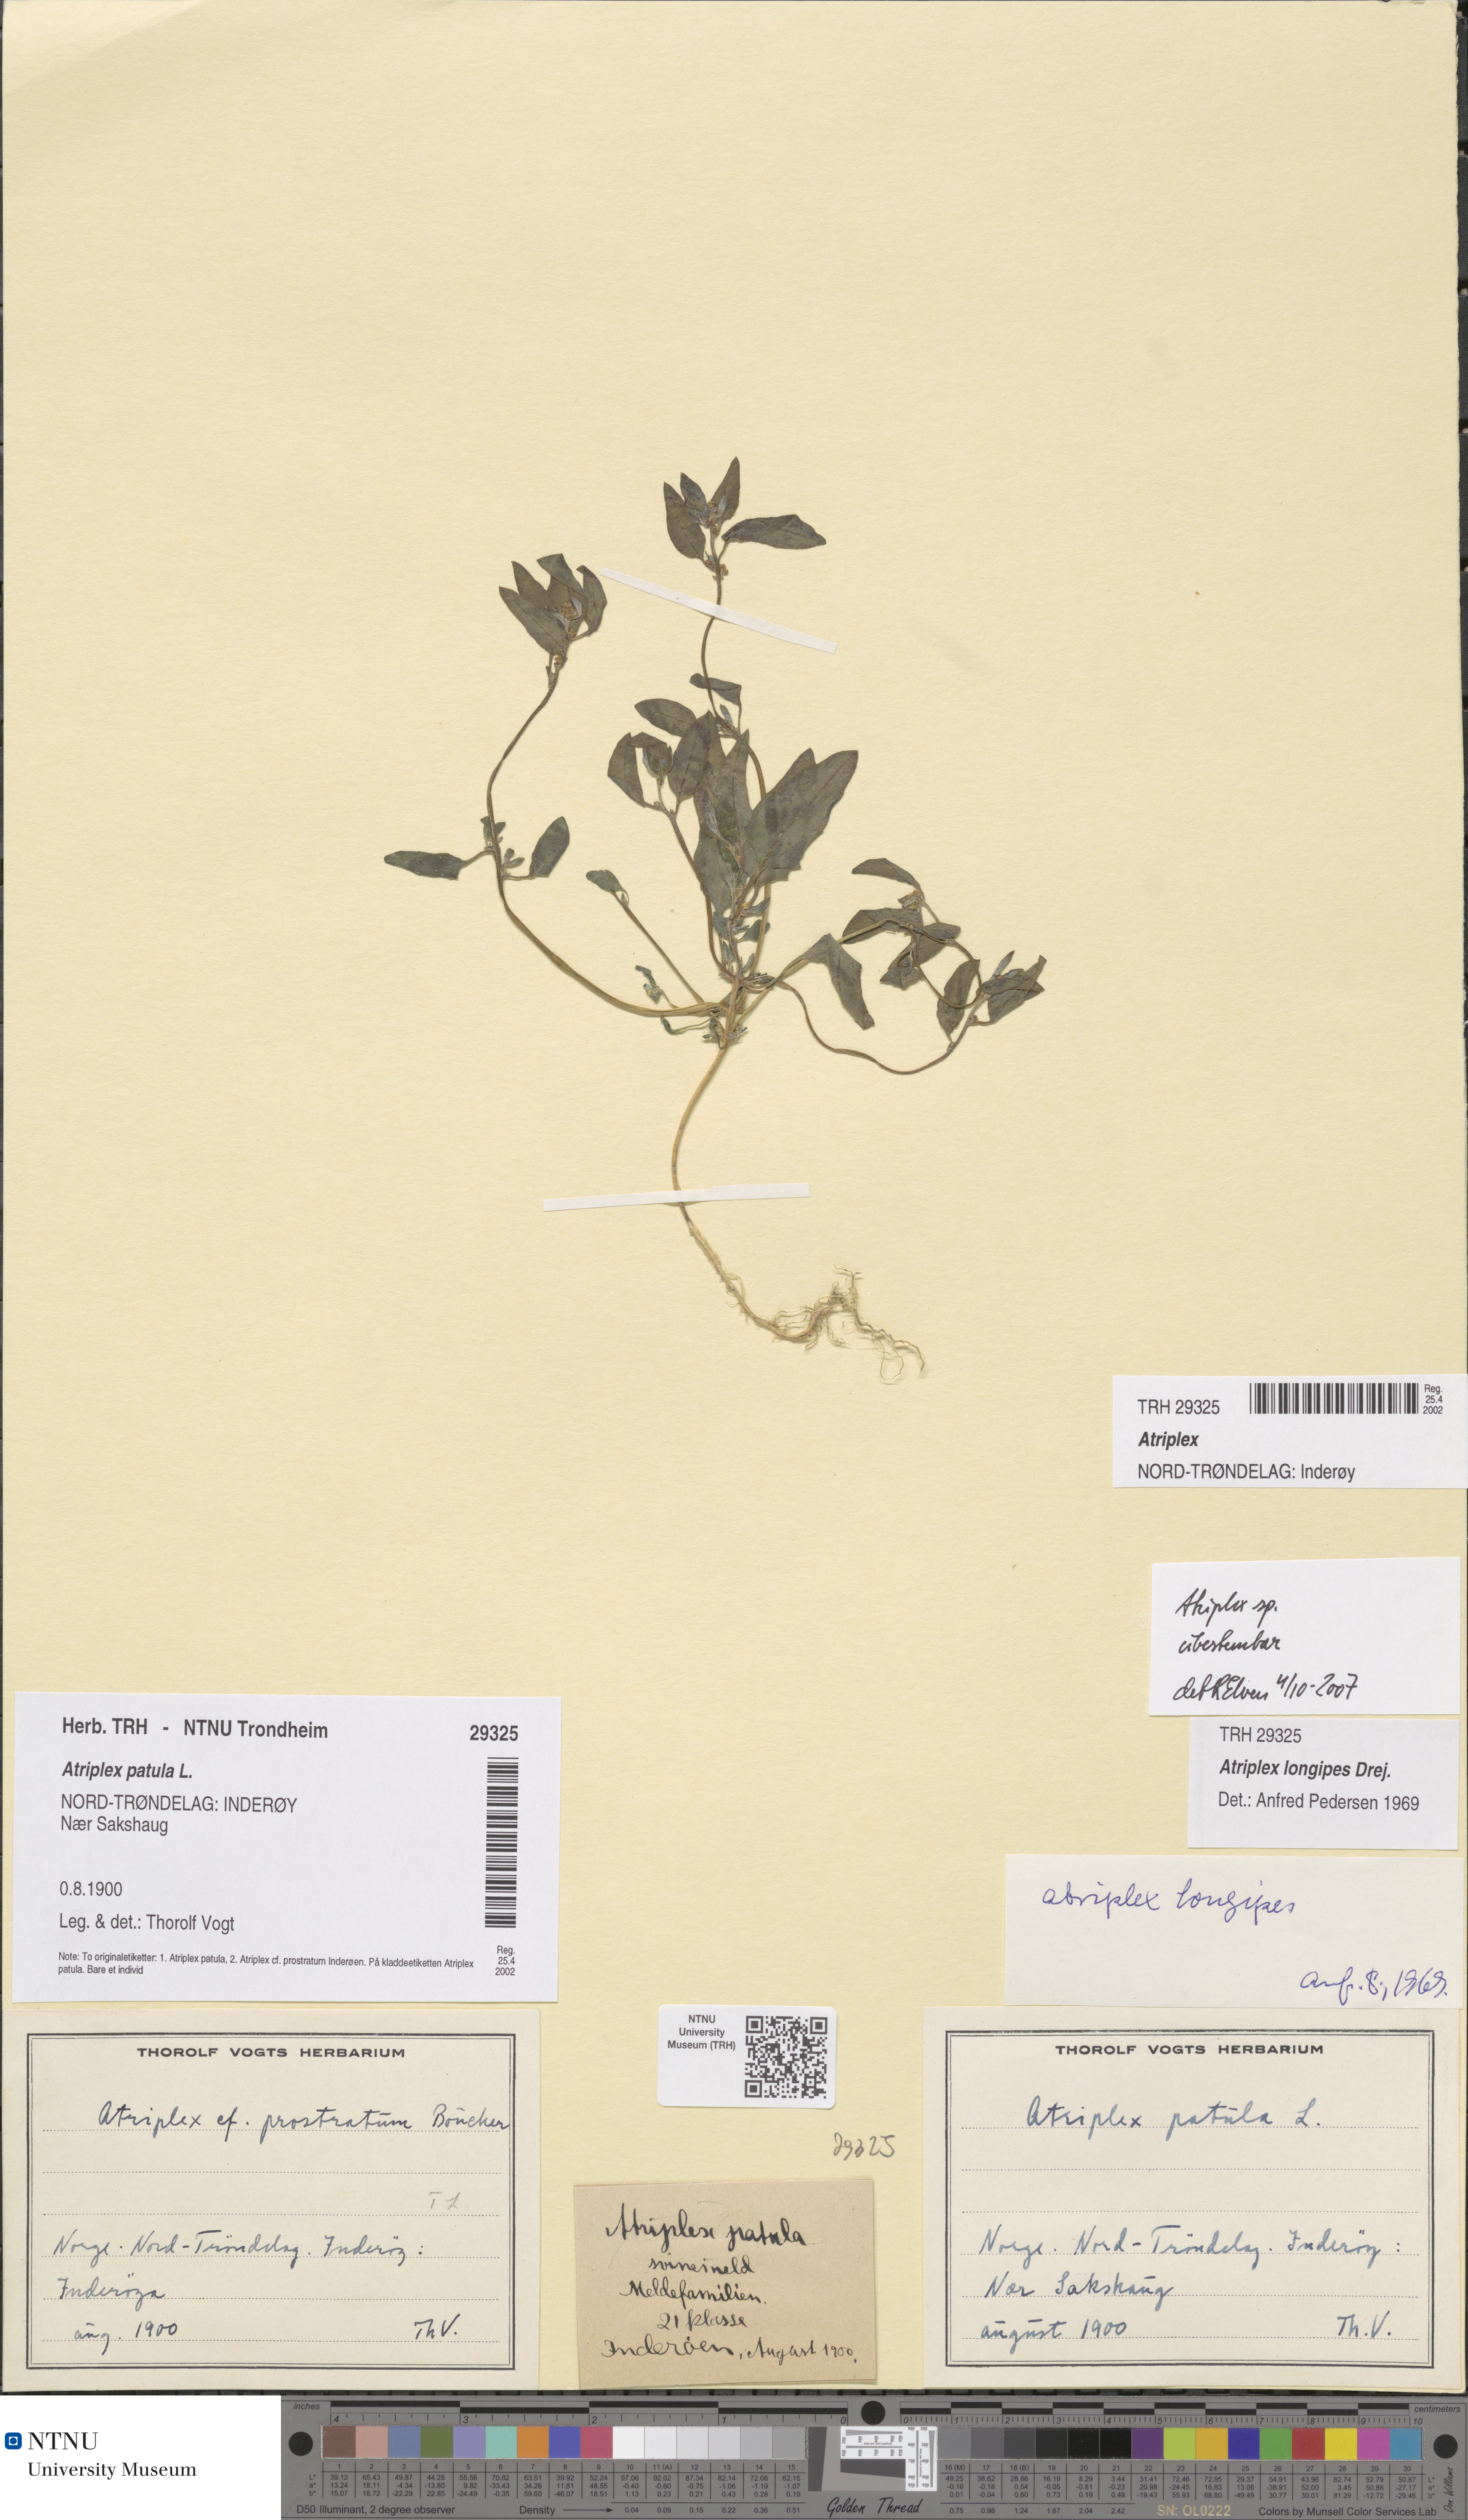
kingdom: Plantae
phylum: Tracheophyta
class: Magnoliopsida
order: Caryophyllales
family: Amaranthaceae
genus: Atriplex
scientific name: Atriplex
